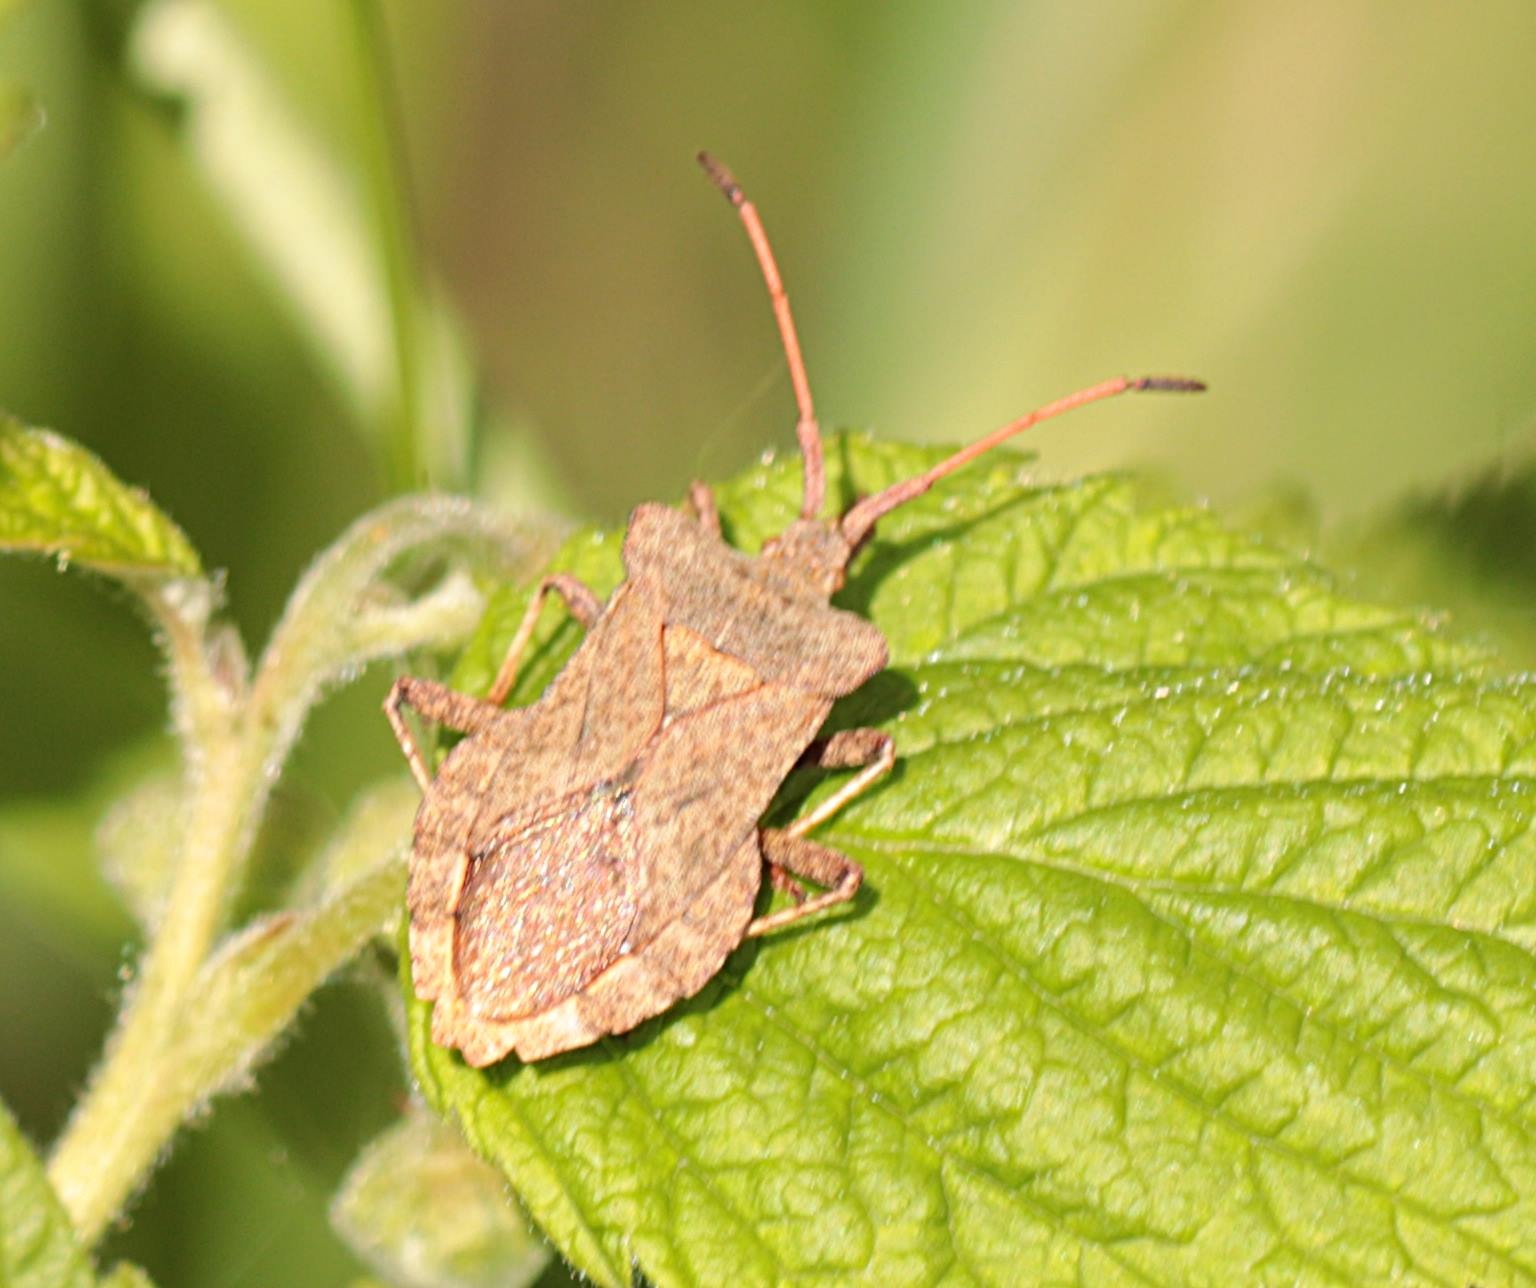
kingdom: Animalia
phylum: Arthropoda
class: Insecta
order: Hemiptera
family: Coreidae
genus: Coreus
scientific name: Coreus marginatus
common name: Skræppetæge
